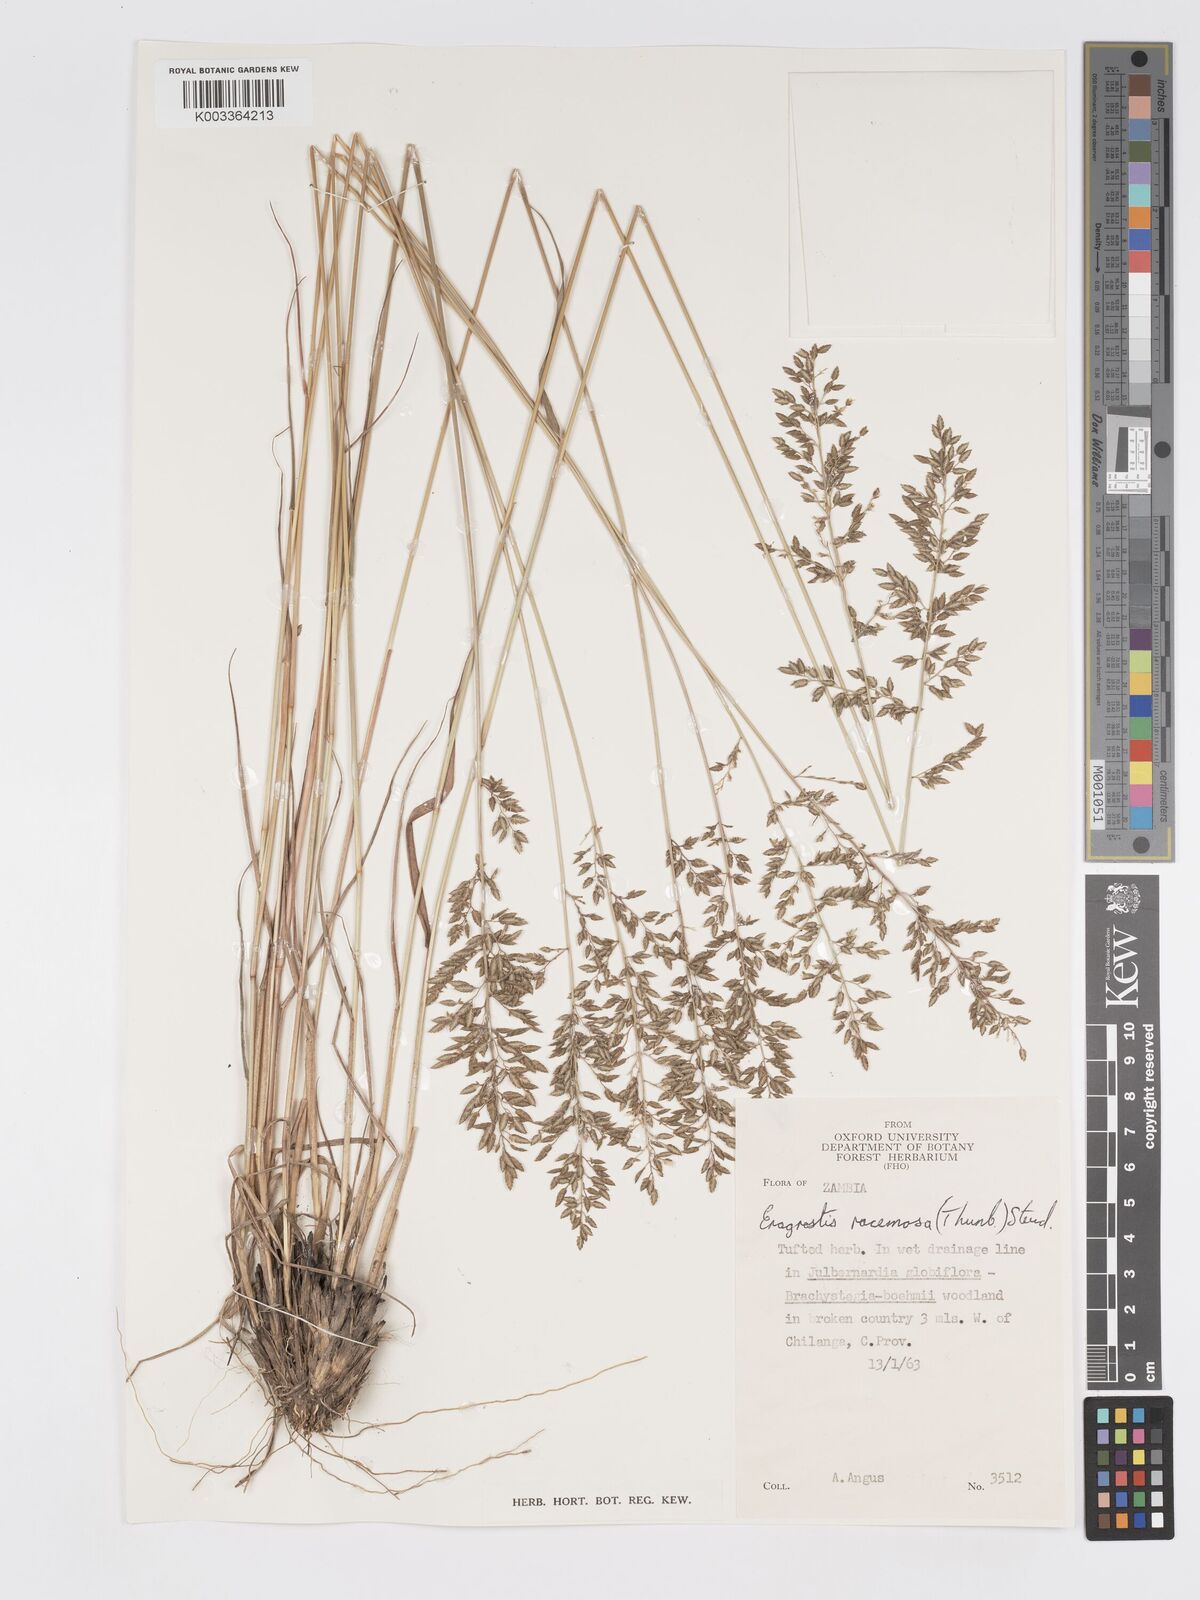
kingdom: Plantae
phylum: Tracheophyta
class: Liliopsida
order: Poales
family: Poaceae
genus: Eragrostis
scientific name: Eragrostis racemosa
